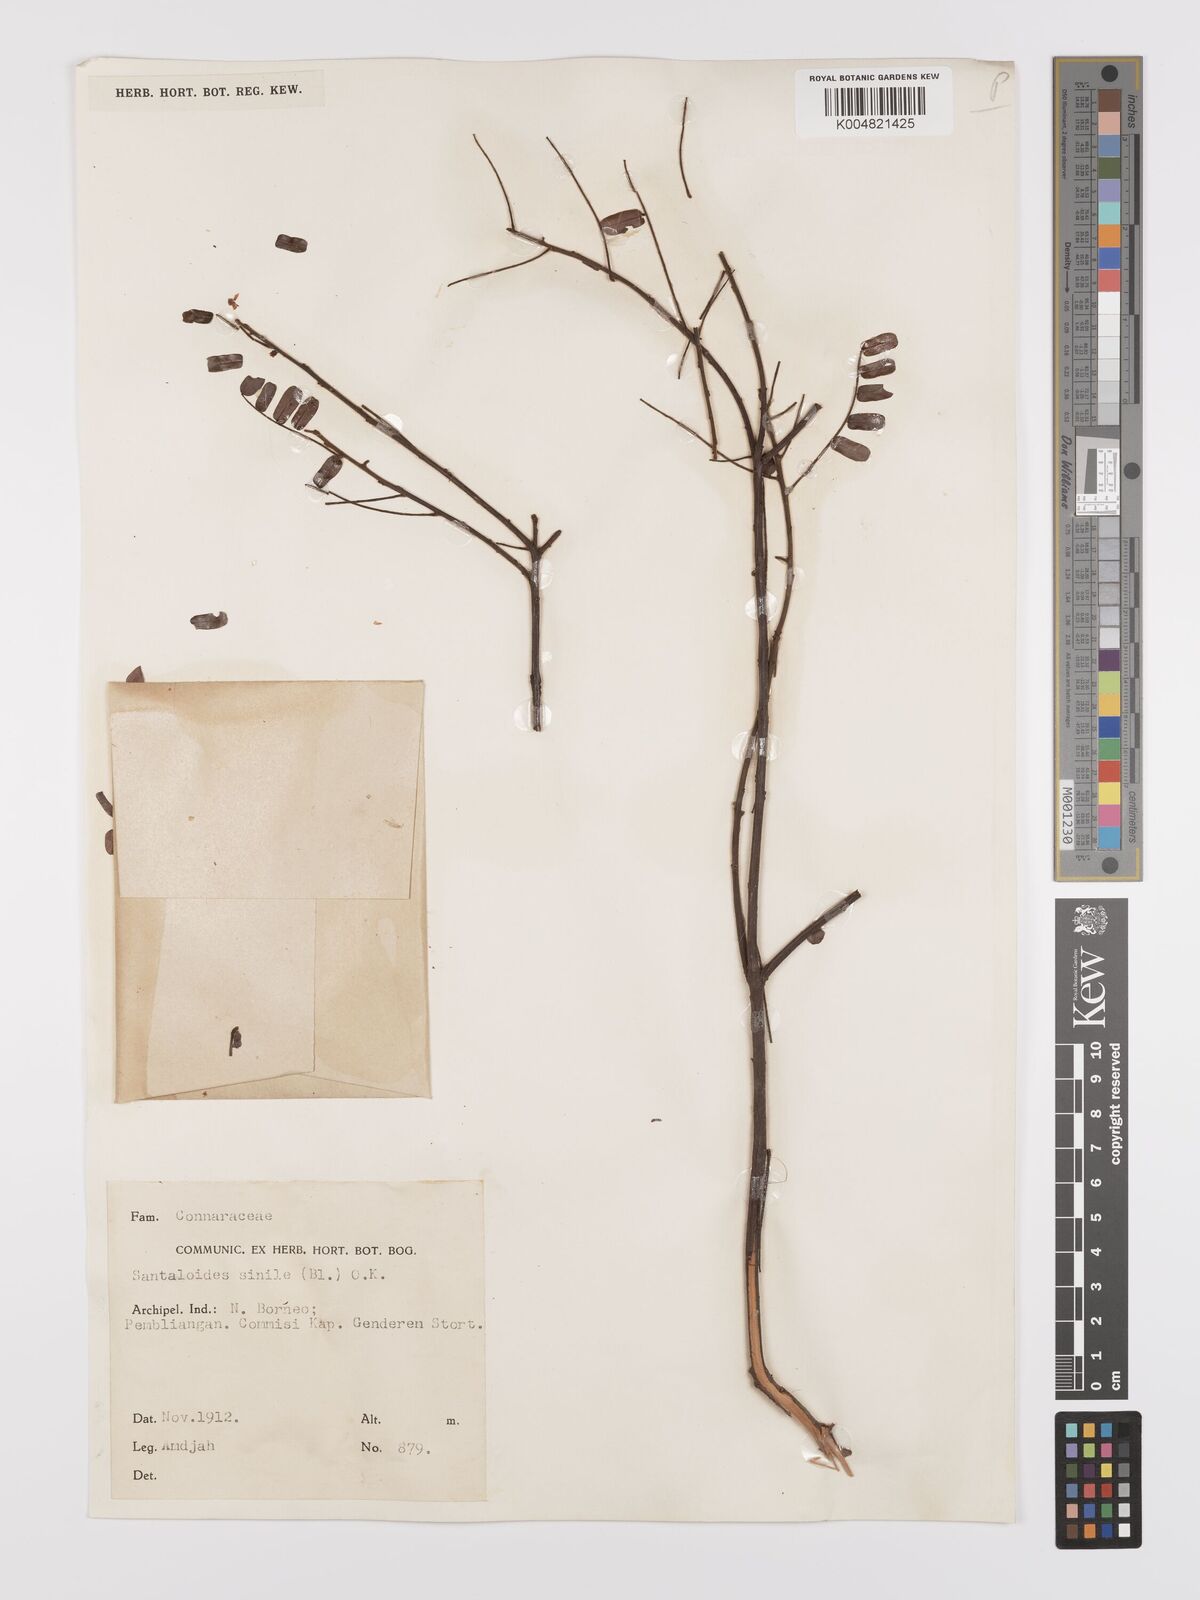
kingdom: Plantae
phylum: Tracheophyta
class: Magnoliopsida
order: Oxalidales
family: Connaraceae
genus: Rourea
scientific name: Rourea mimosoides
